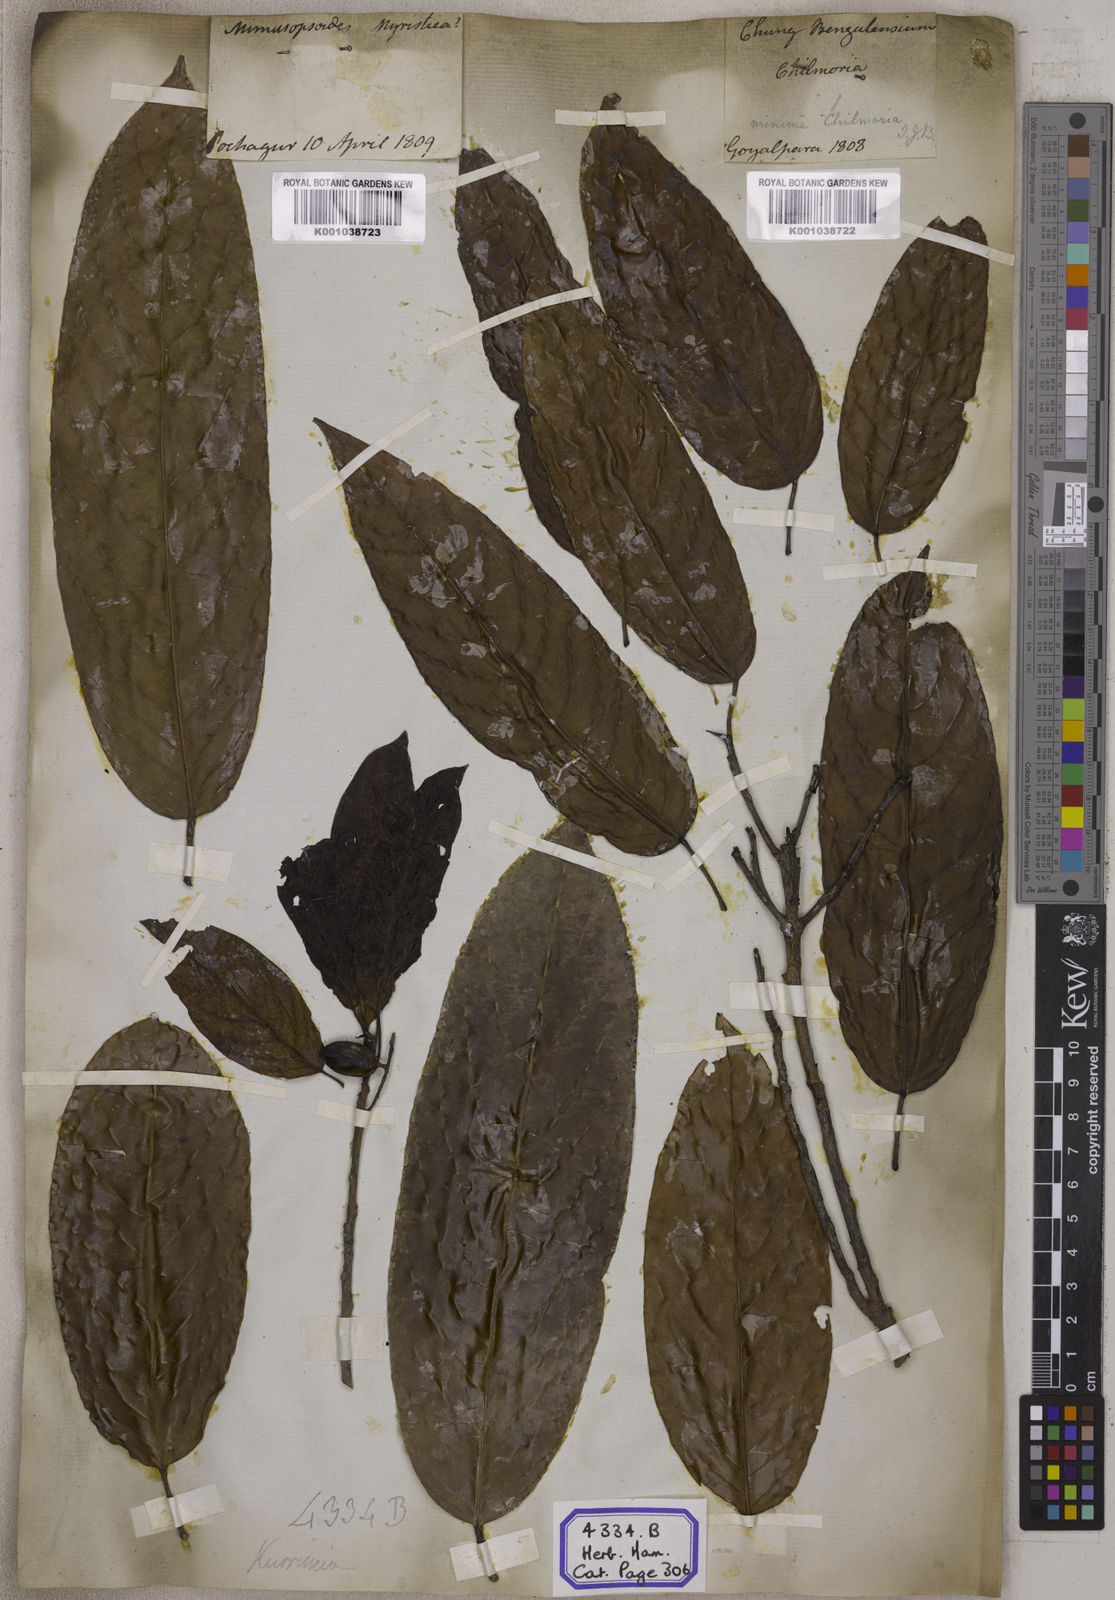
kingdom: Plantae
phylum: Tracheophyta
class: Magnoliopsida
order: Escalloniales
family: Escalloniaceae
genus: Kurrimia
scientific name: Kurrimia
